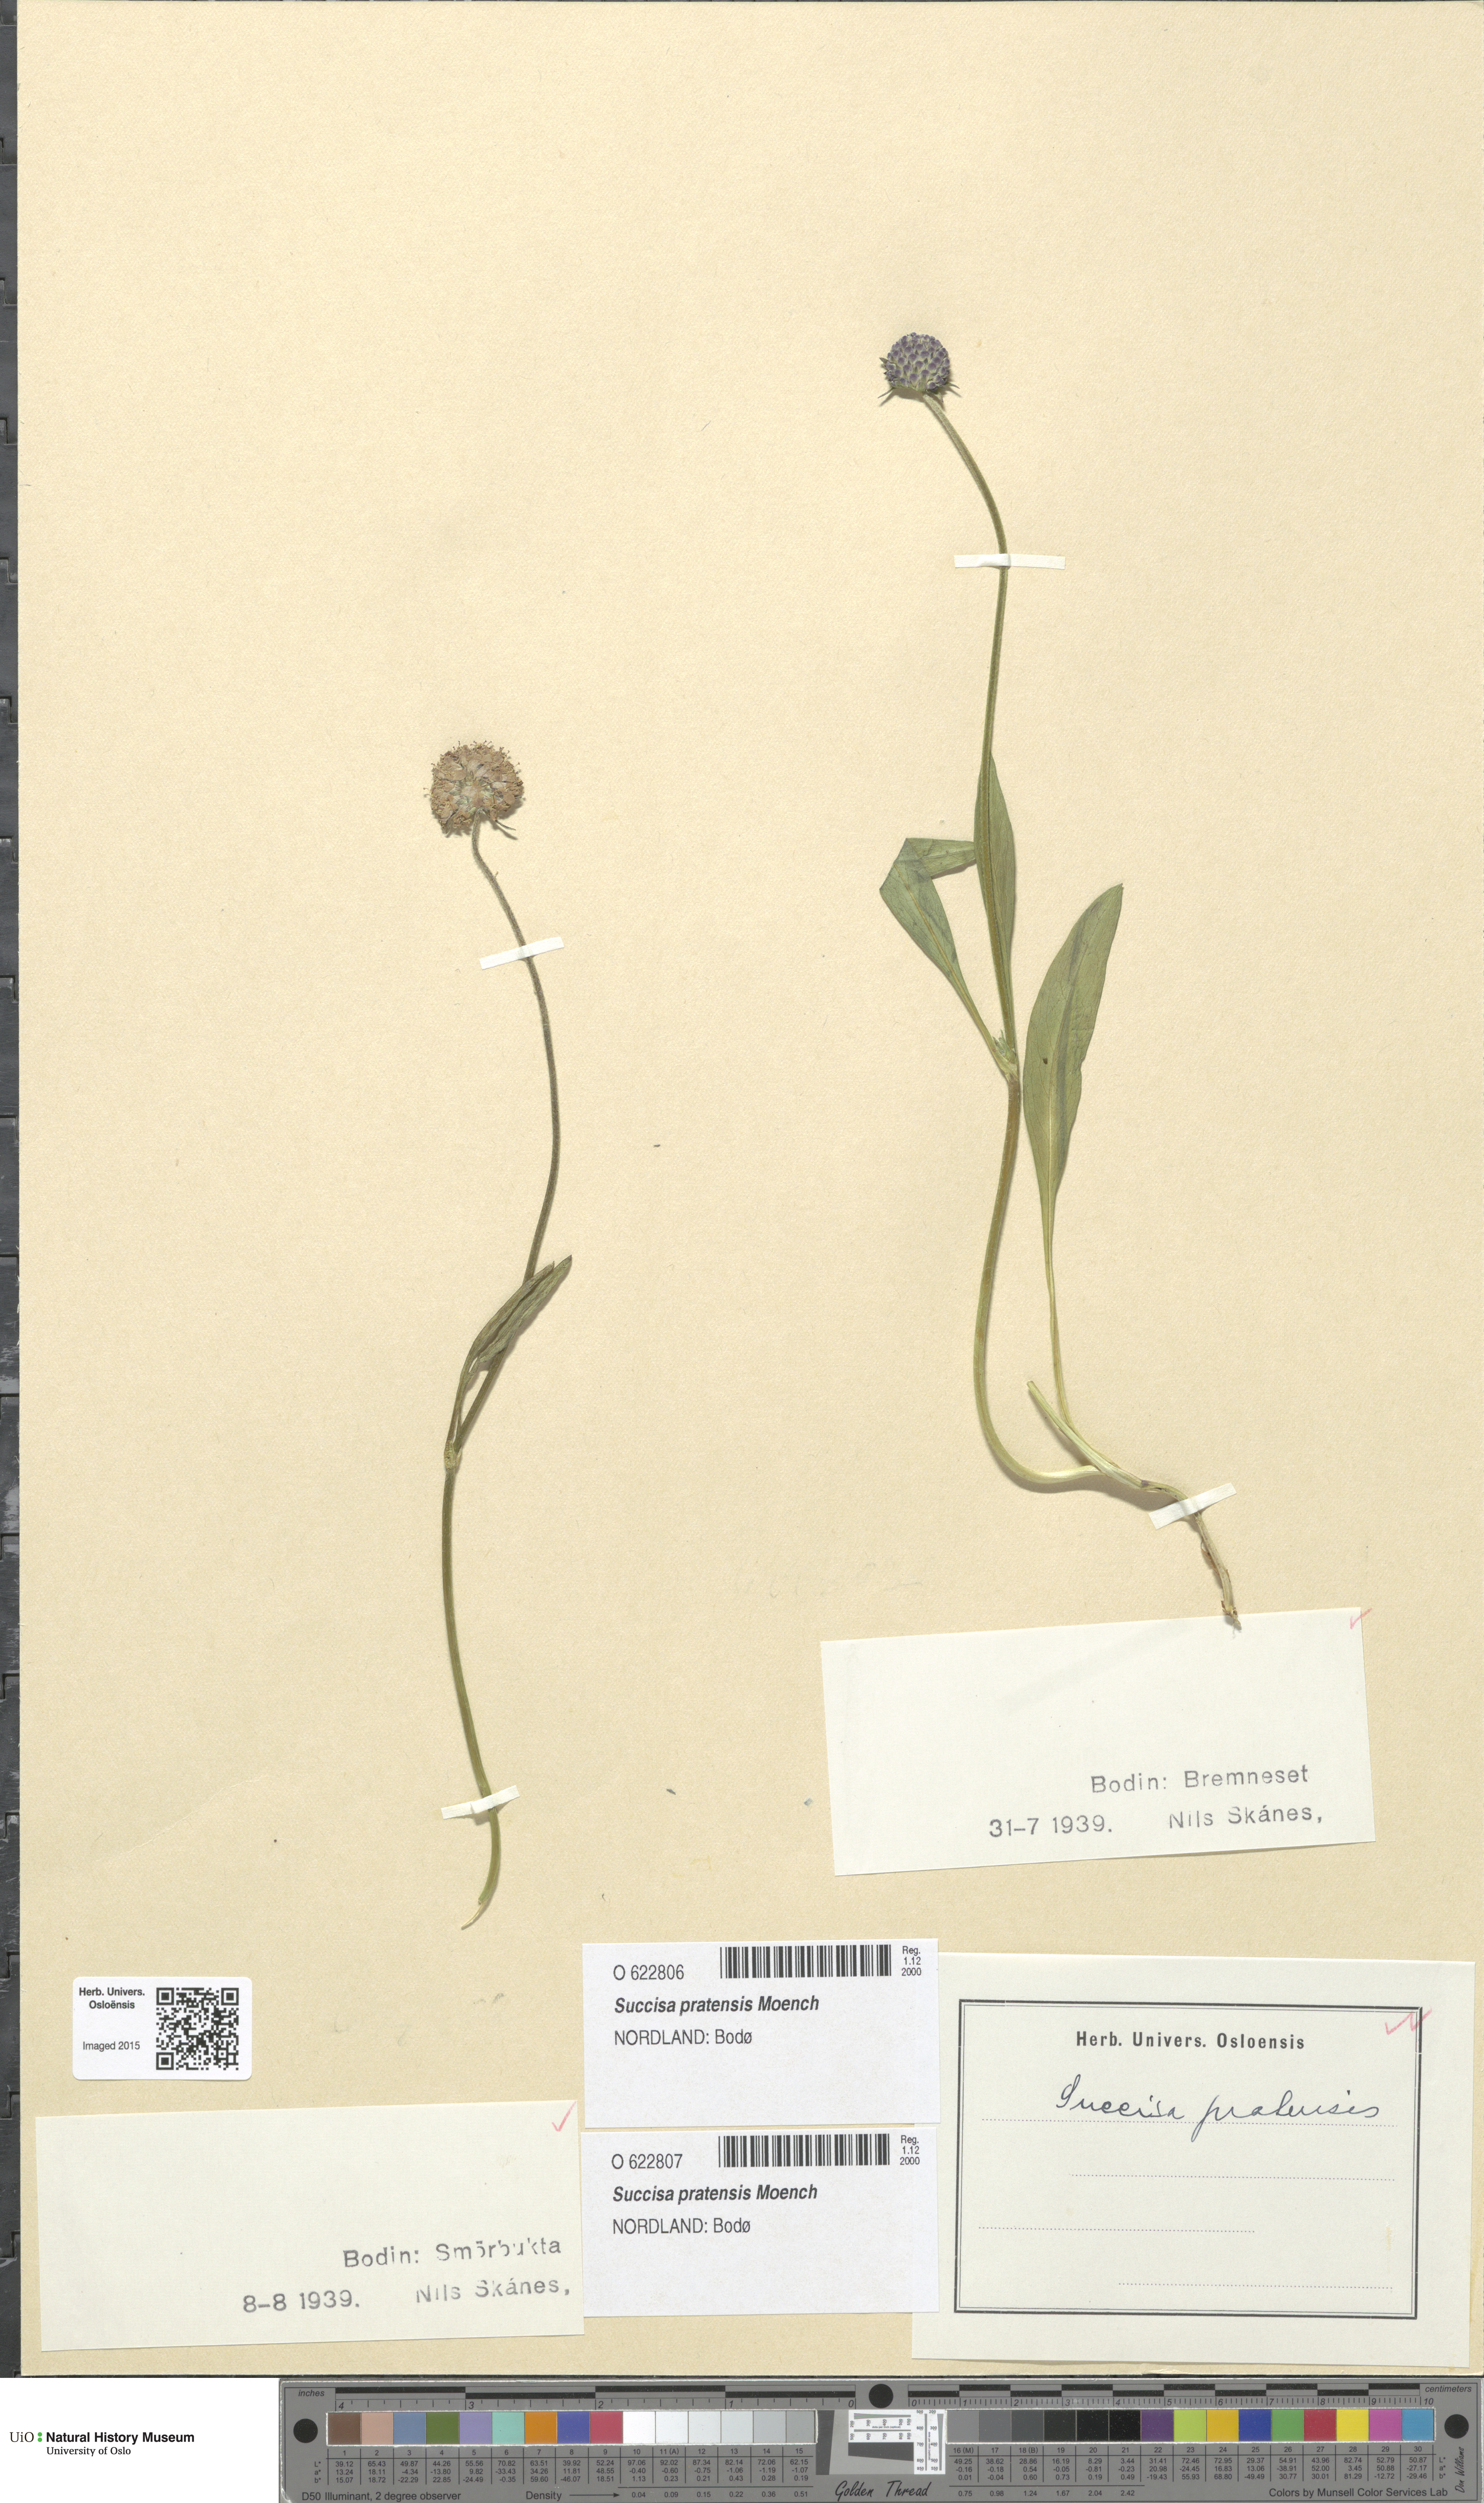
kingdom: Plantae
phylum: Tracheophyta
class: Magnoliopsida
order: Dipsacales
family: Caprifoliaceae
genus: Succisa
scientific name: Succisa pratensis
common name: Devil's-bit
